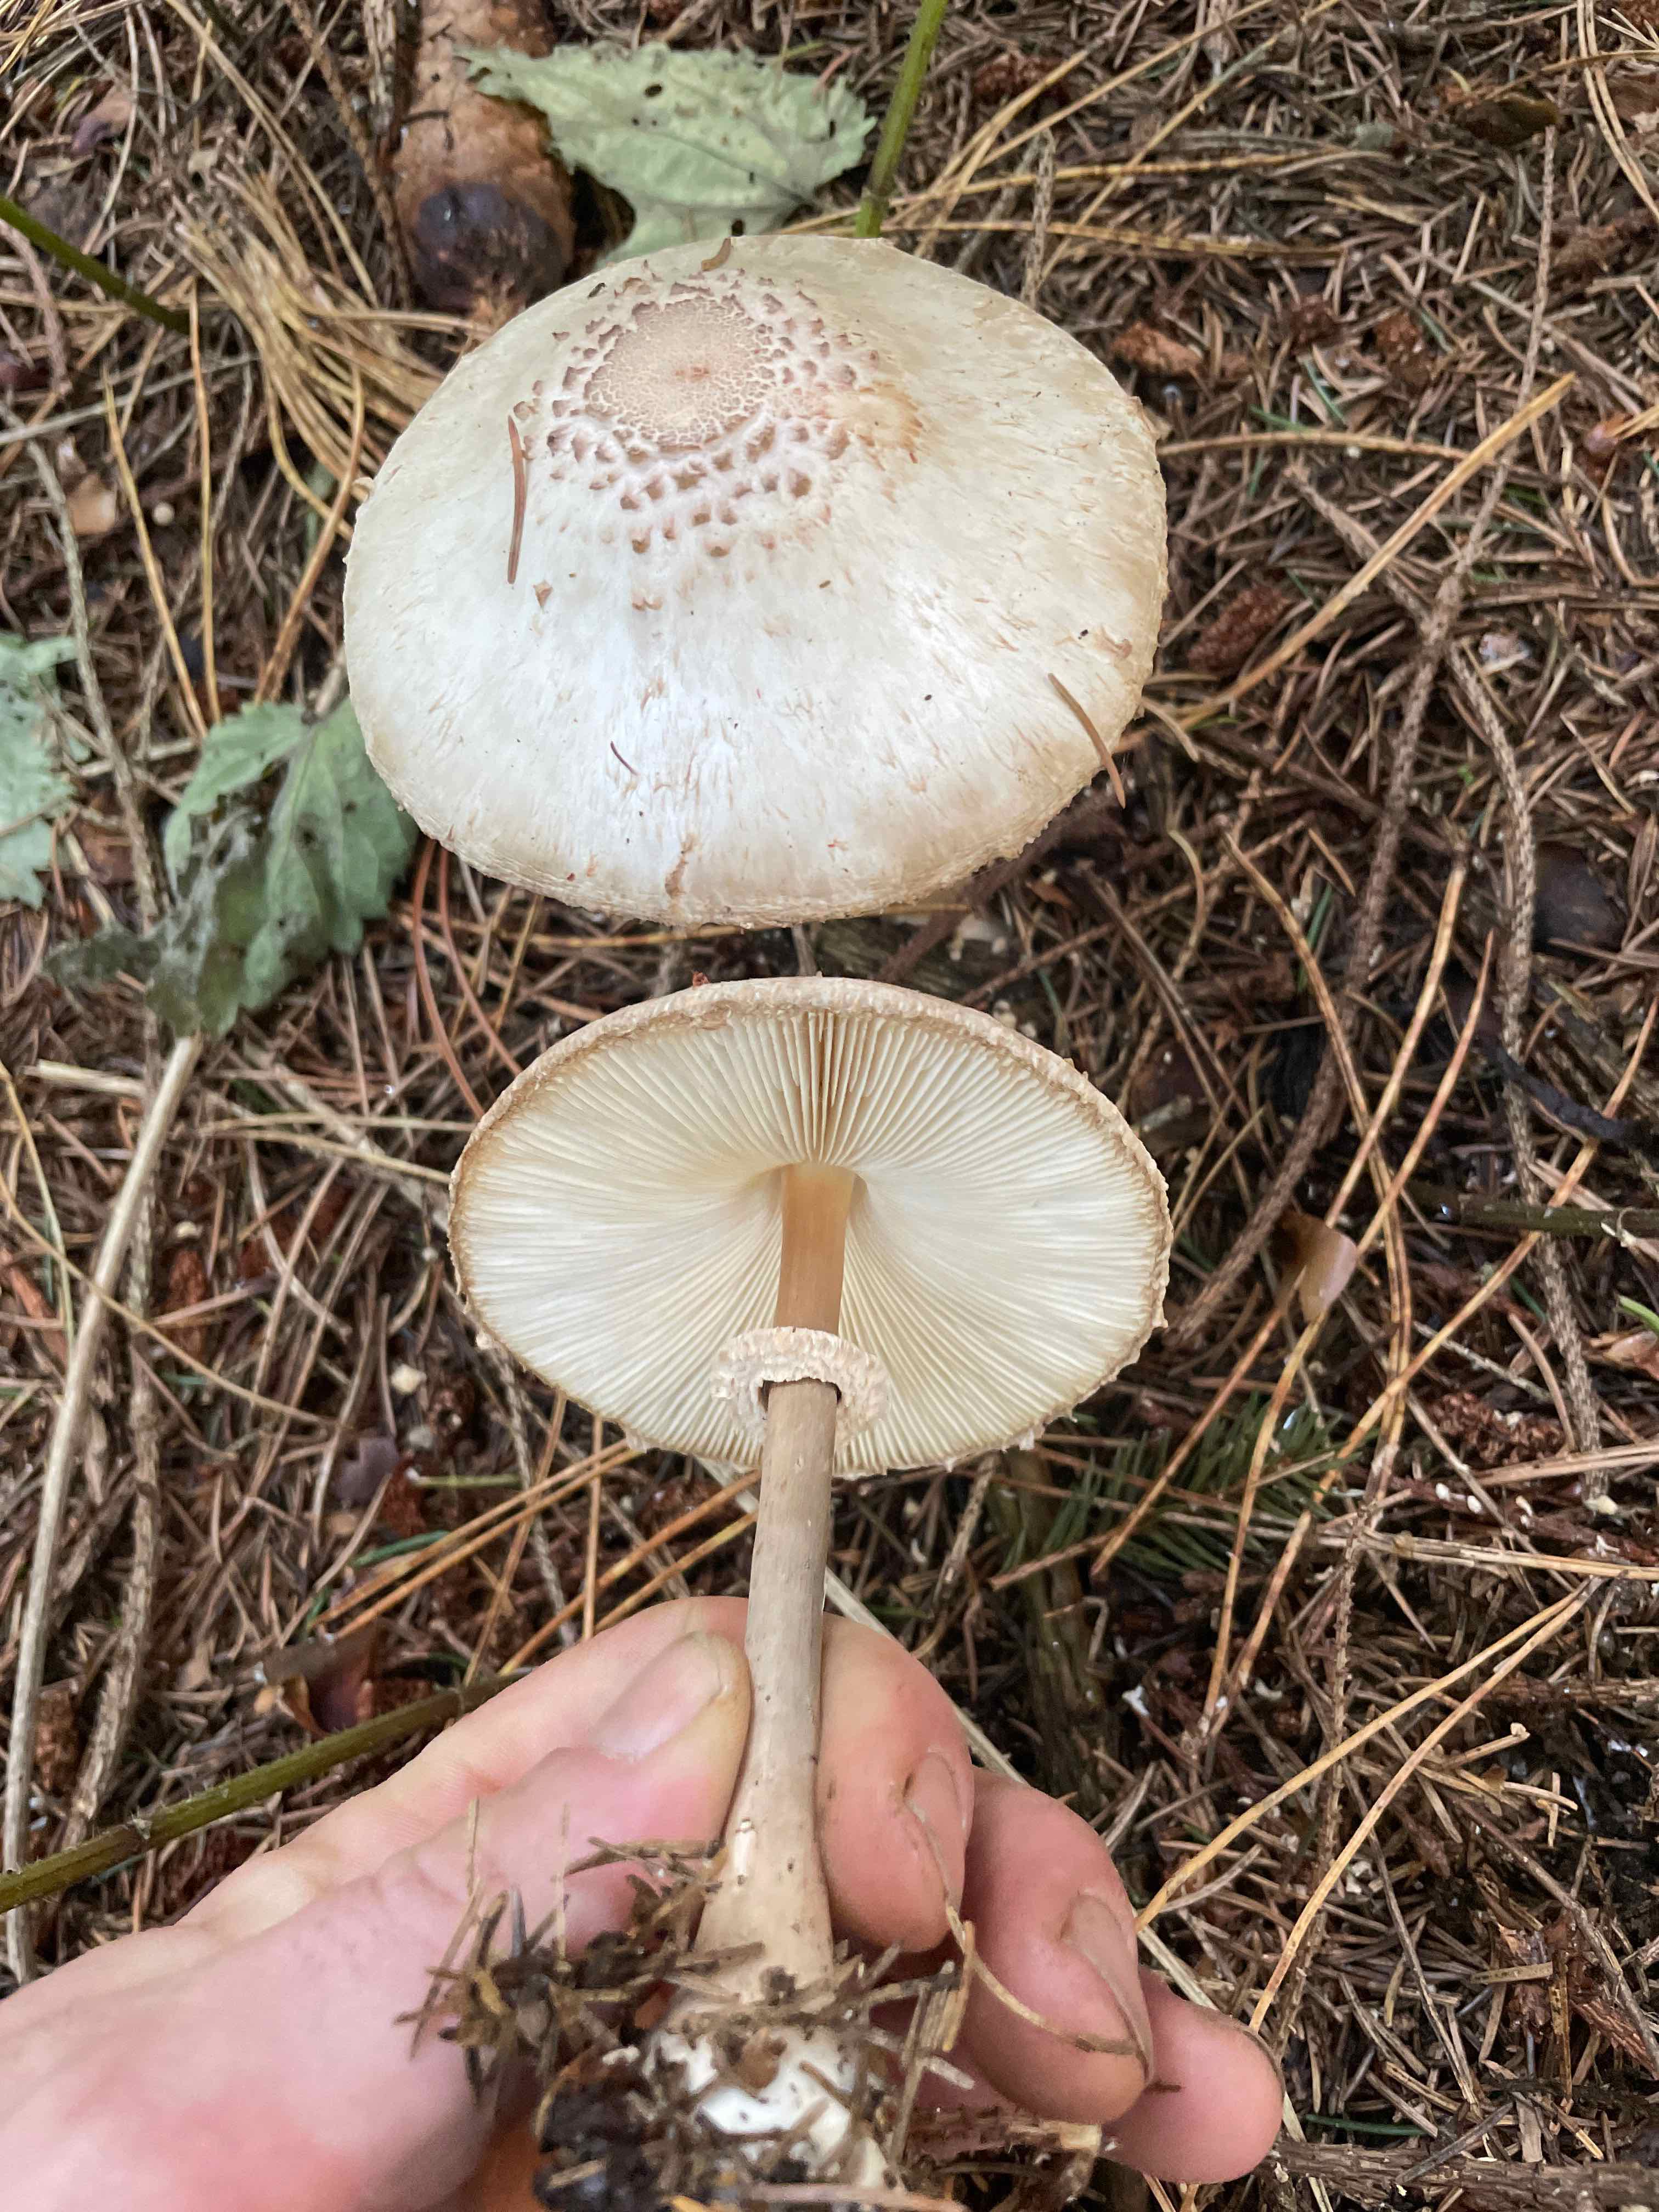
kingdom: Fungi
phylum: Basidiomycota
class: Agaricomycetes
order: Agaricales
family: Agaricaceae
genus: Leucoagaricus
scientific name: Leucoagaricus nympharum
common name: gran-silkehat
